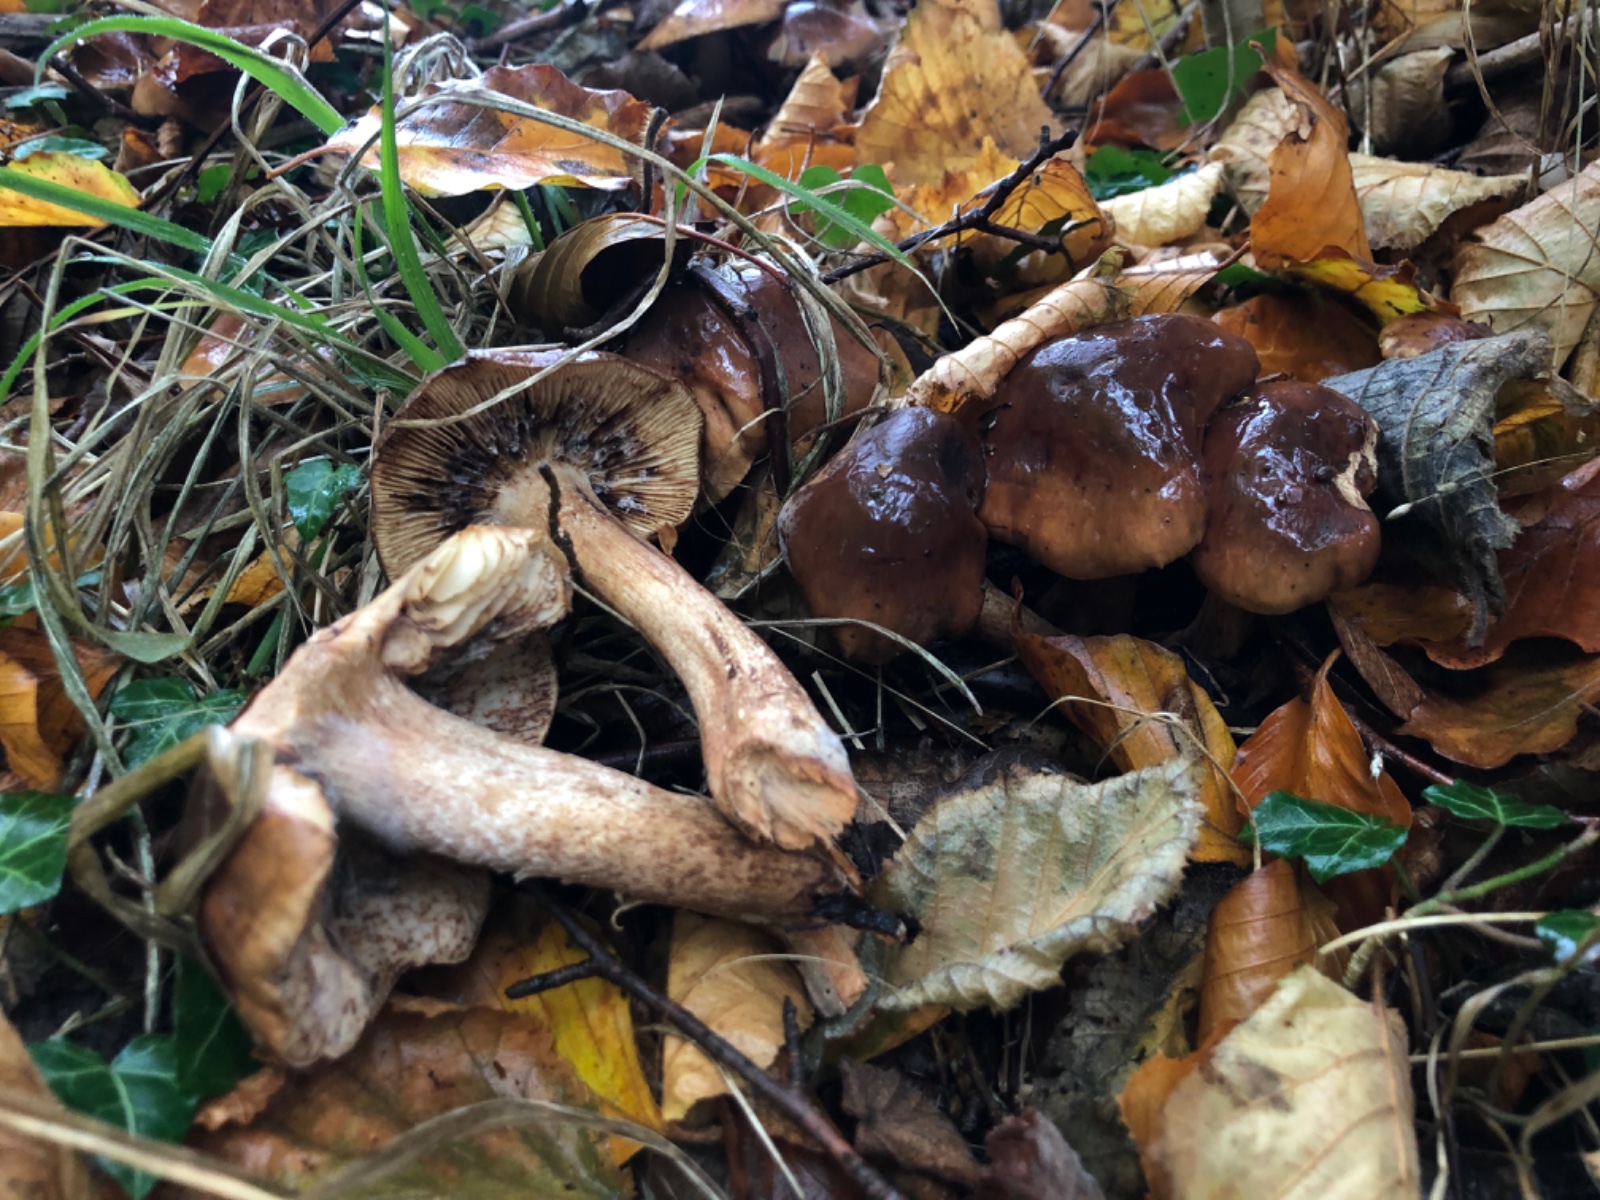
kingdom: Fungi
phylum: Basidiomycota
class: Agaricomycetes
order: Agaricales
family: Tricholomataceae
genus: Tricholoma
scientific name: Tricholoma ustale
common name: sveden ridderhat
